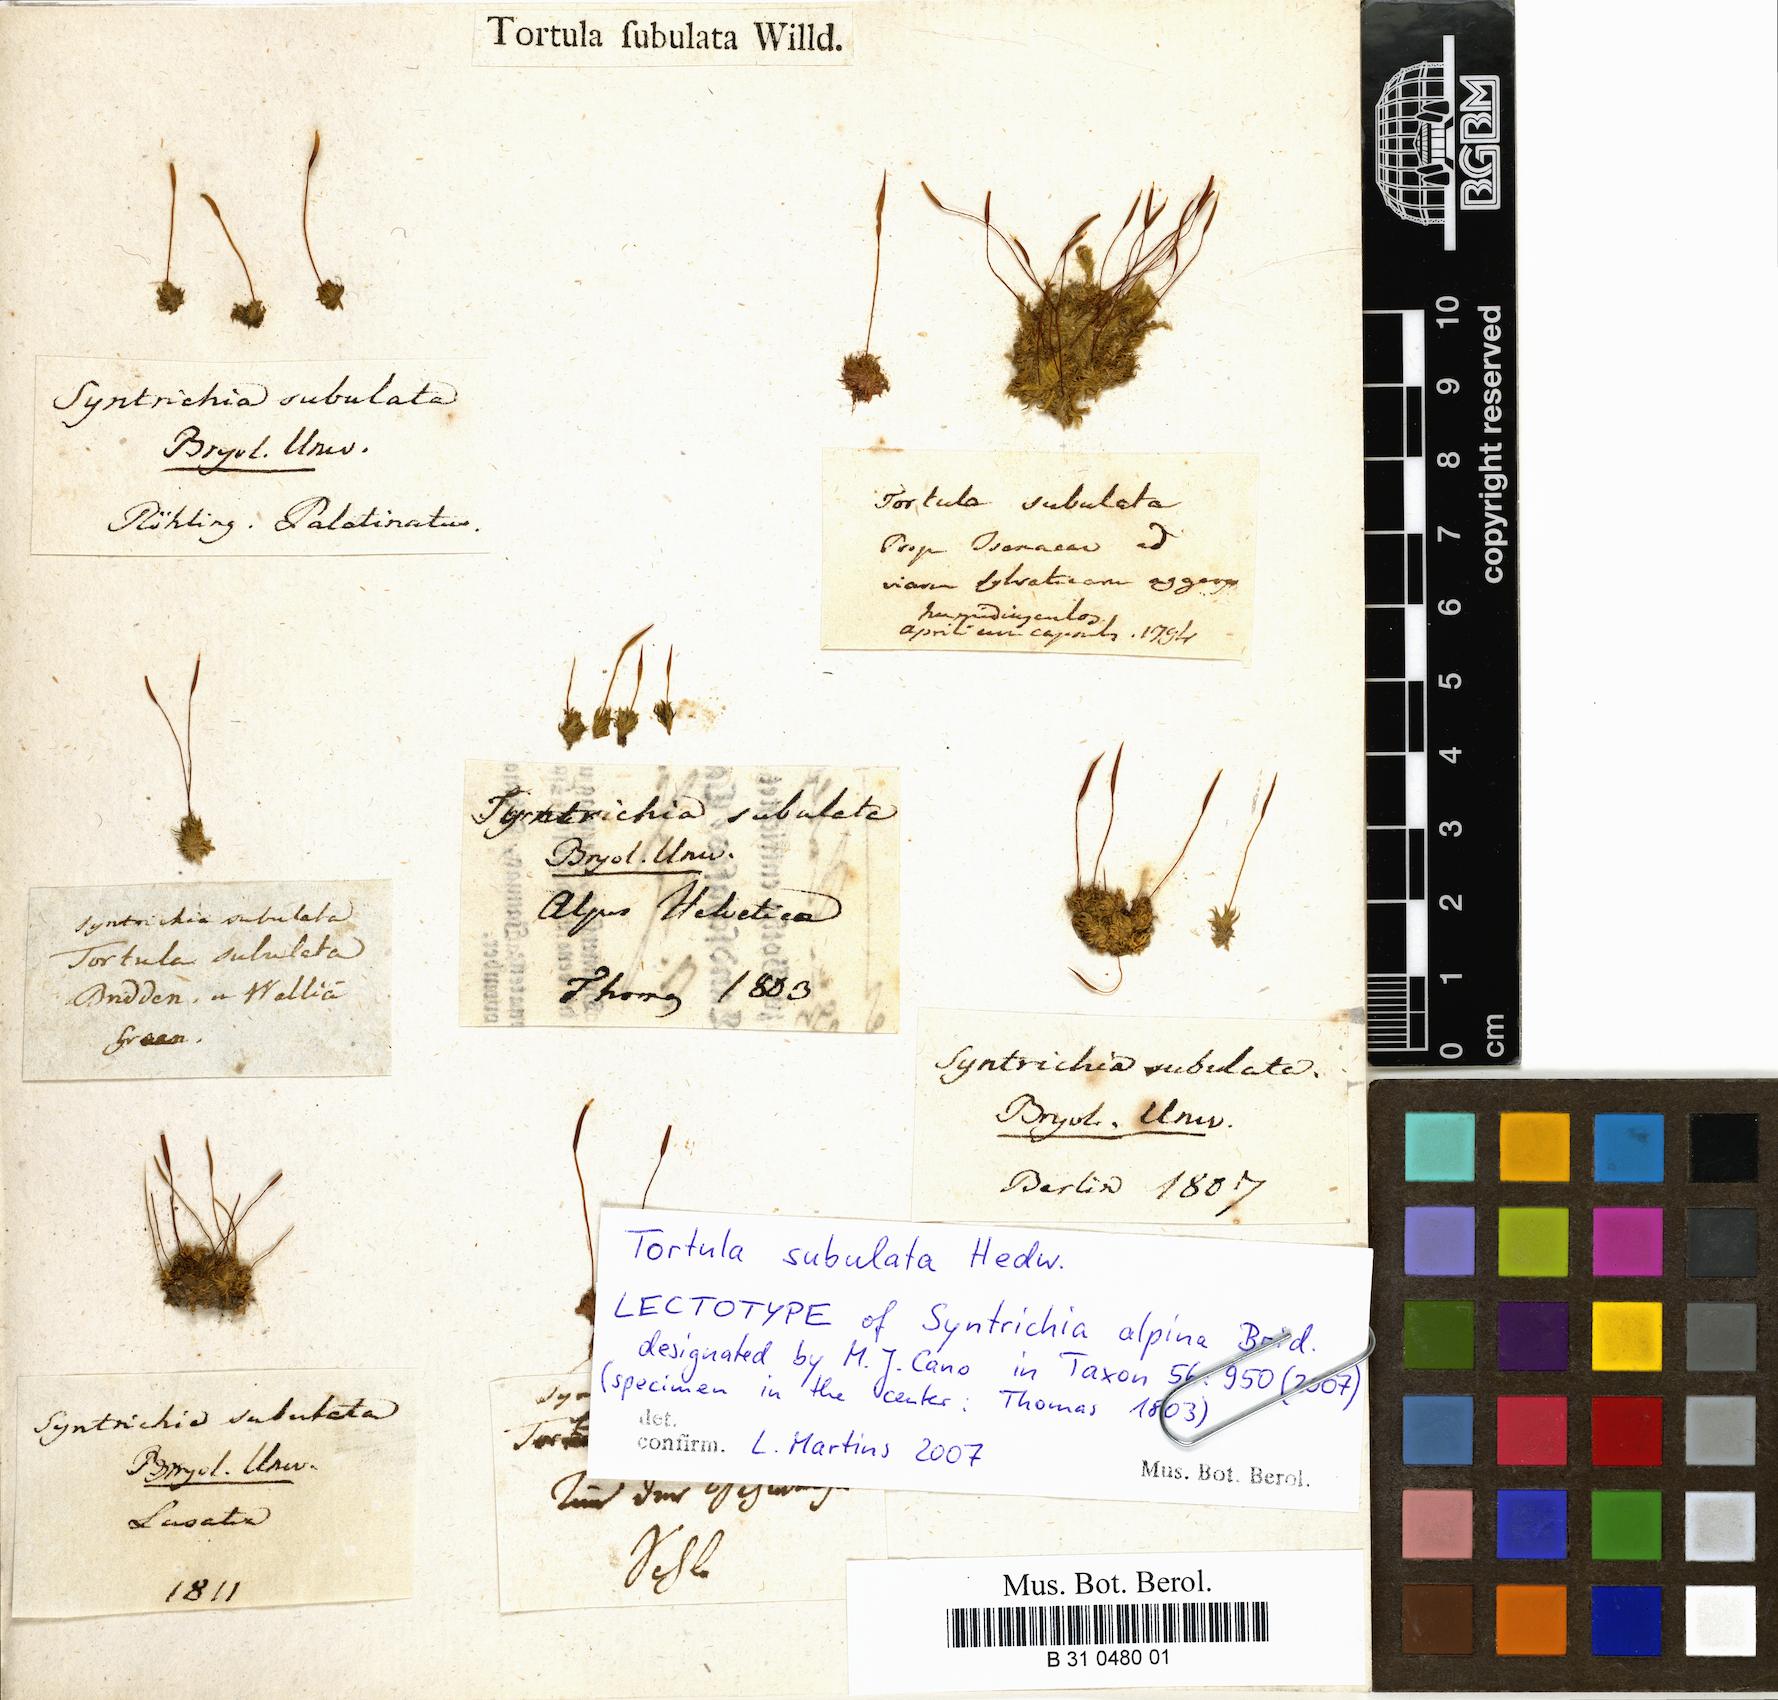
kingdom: Plantae
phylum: Bryophyta
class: Bryopsida
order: Pottiales
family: Pottiaceae
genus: Tortula
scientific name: Tortula subulata
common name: Upright screw-moss
